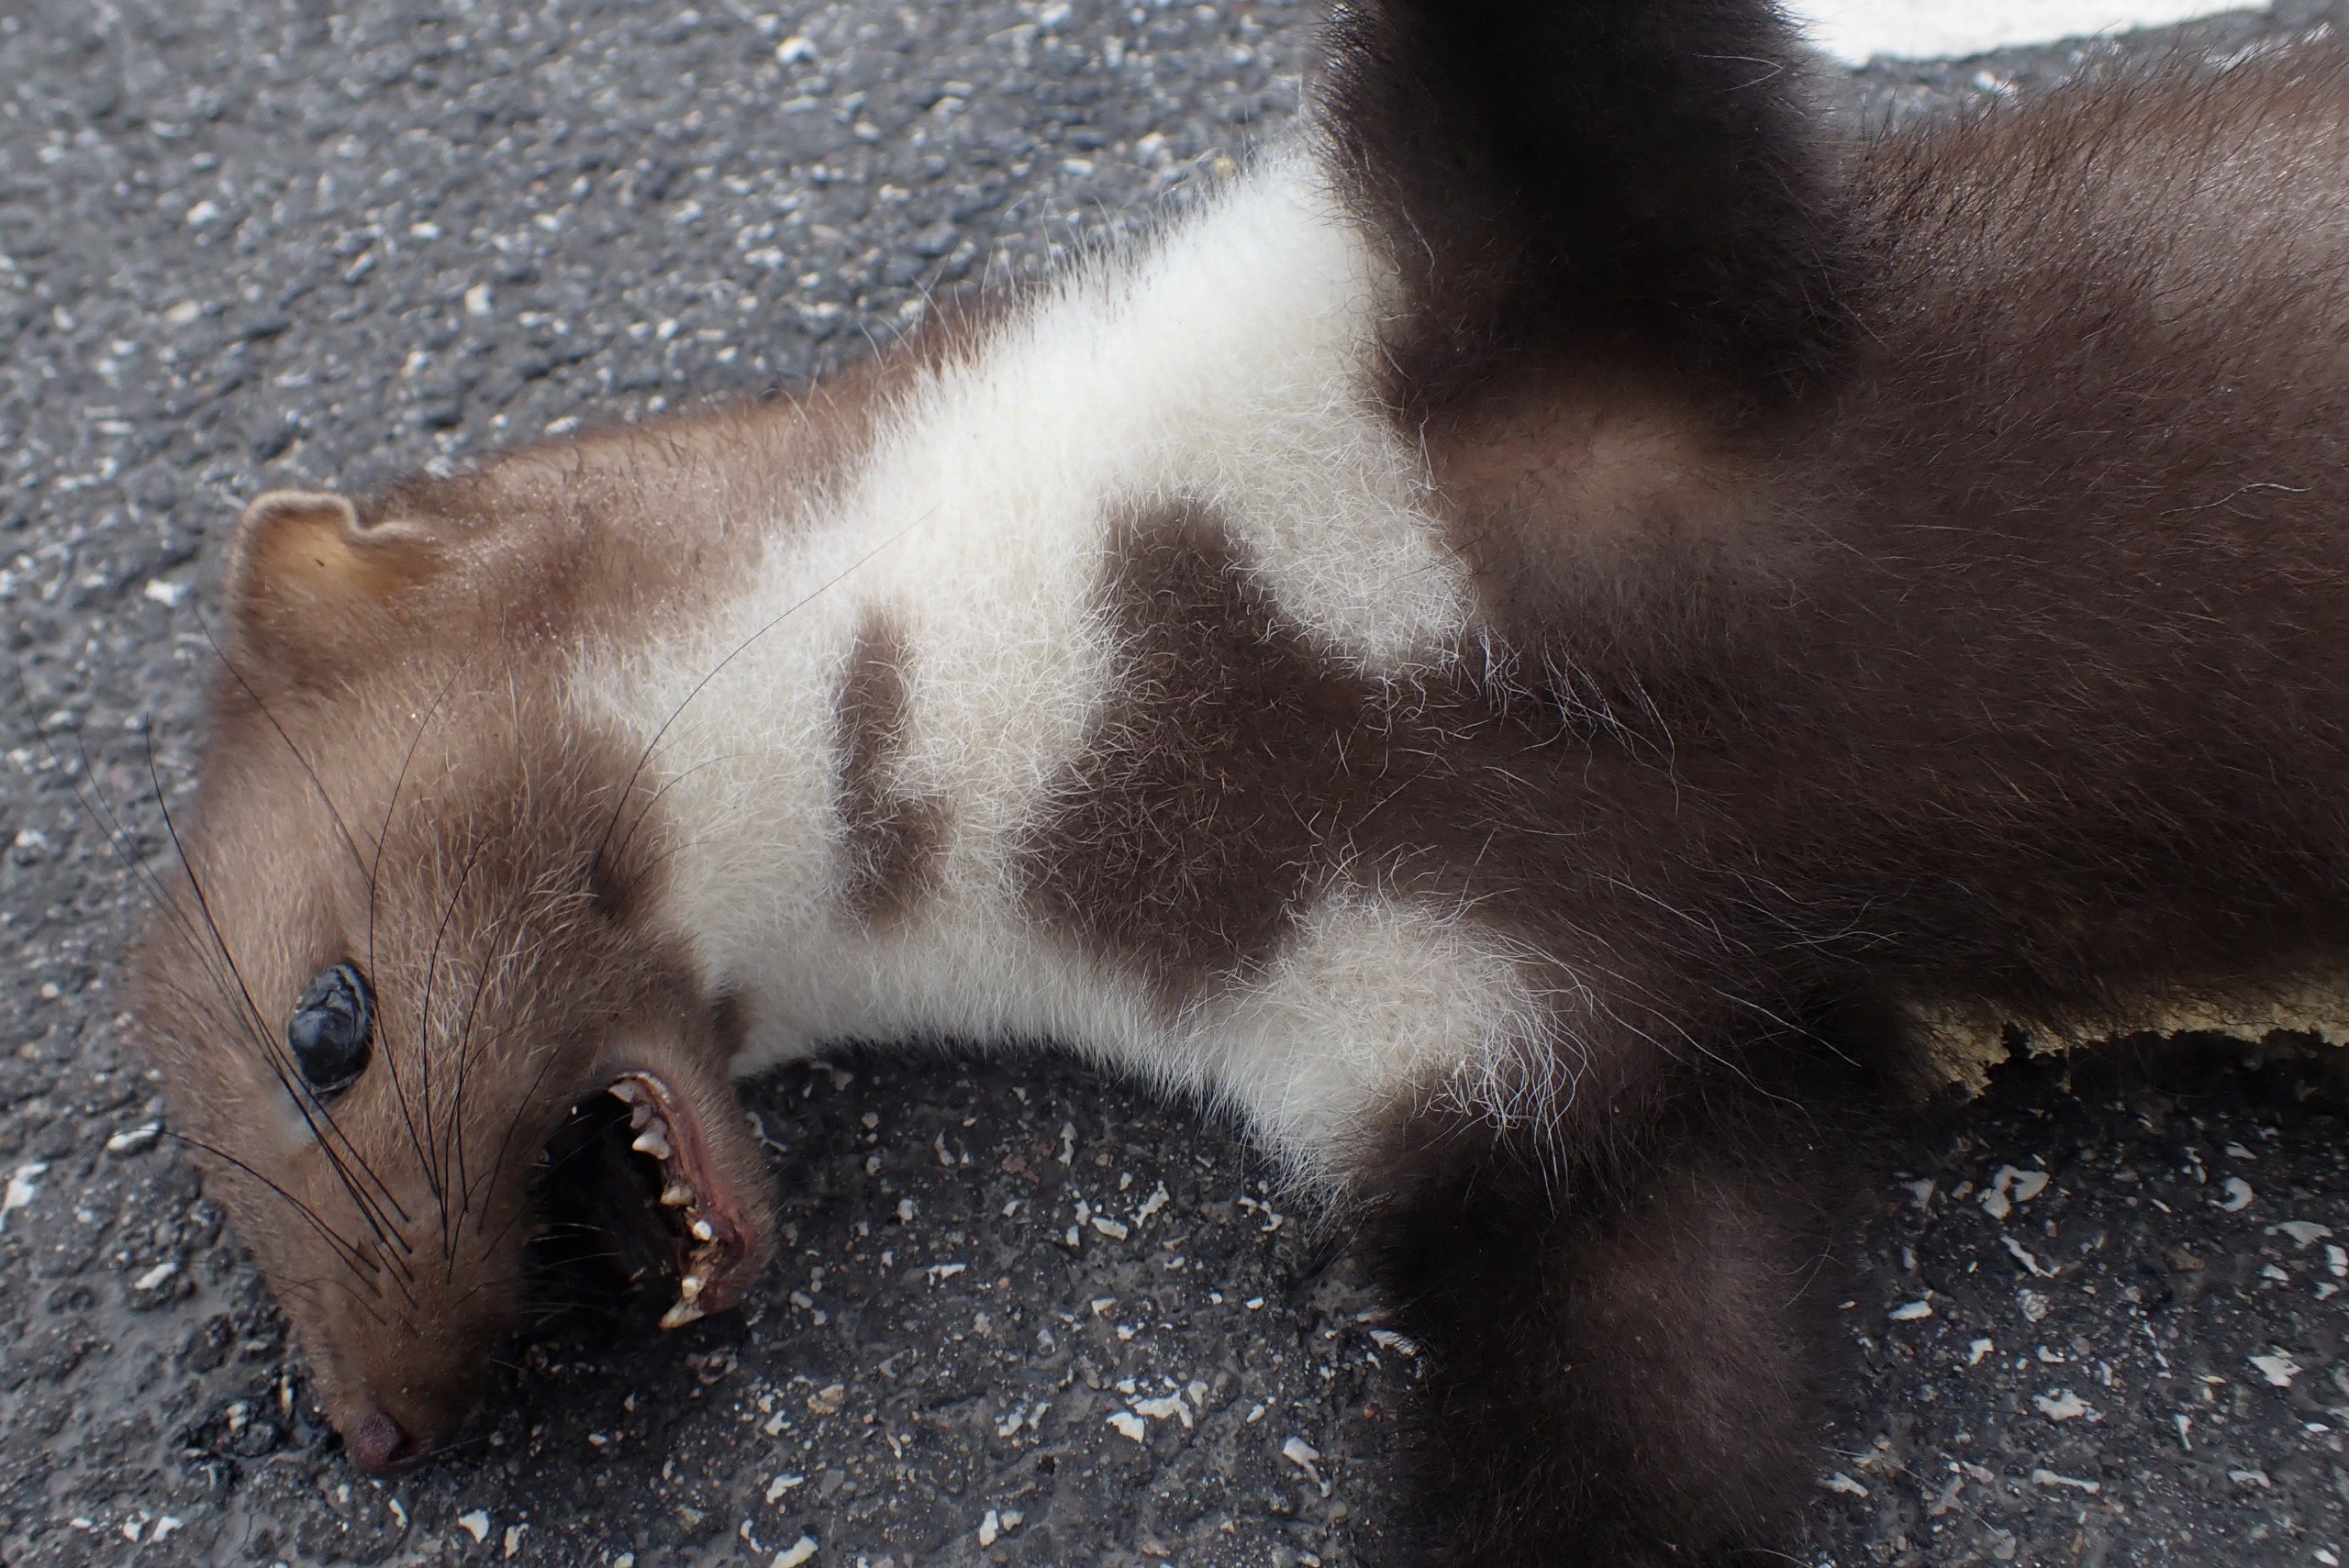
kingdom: Animalia
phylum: Chordata
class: Mammalia
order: Carnivora
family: Mustelidae
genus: Martes
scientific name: Martes foina
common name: Husmår
